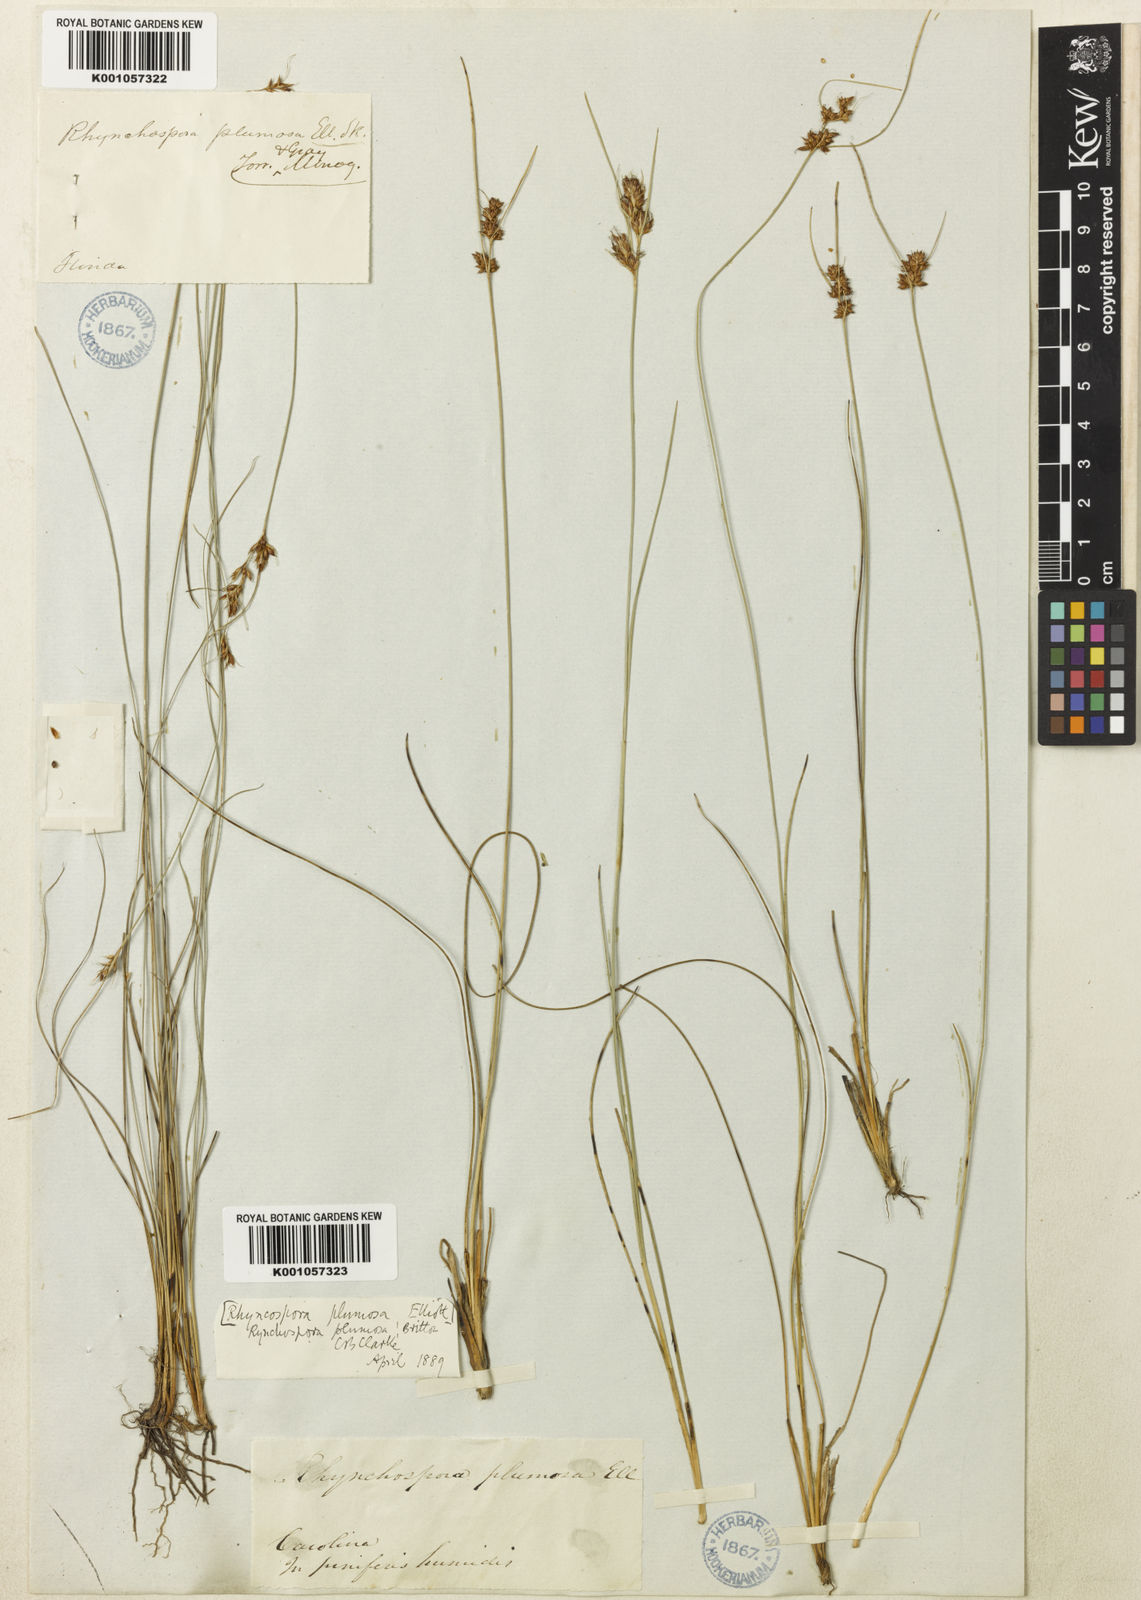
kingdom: Plantae
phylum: Tracheophyta
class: Liliopsida
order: Poales
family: Cyperaceae
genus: Rhynchospora
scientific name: Rhynchospora plumosa
